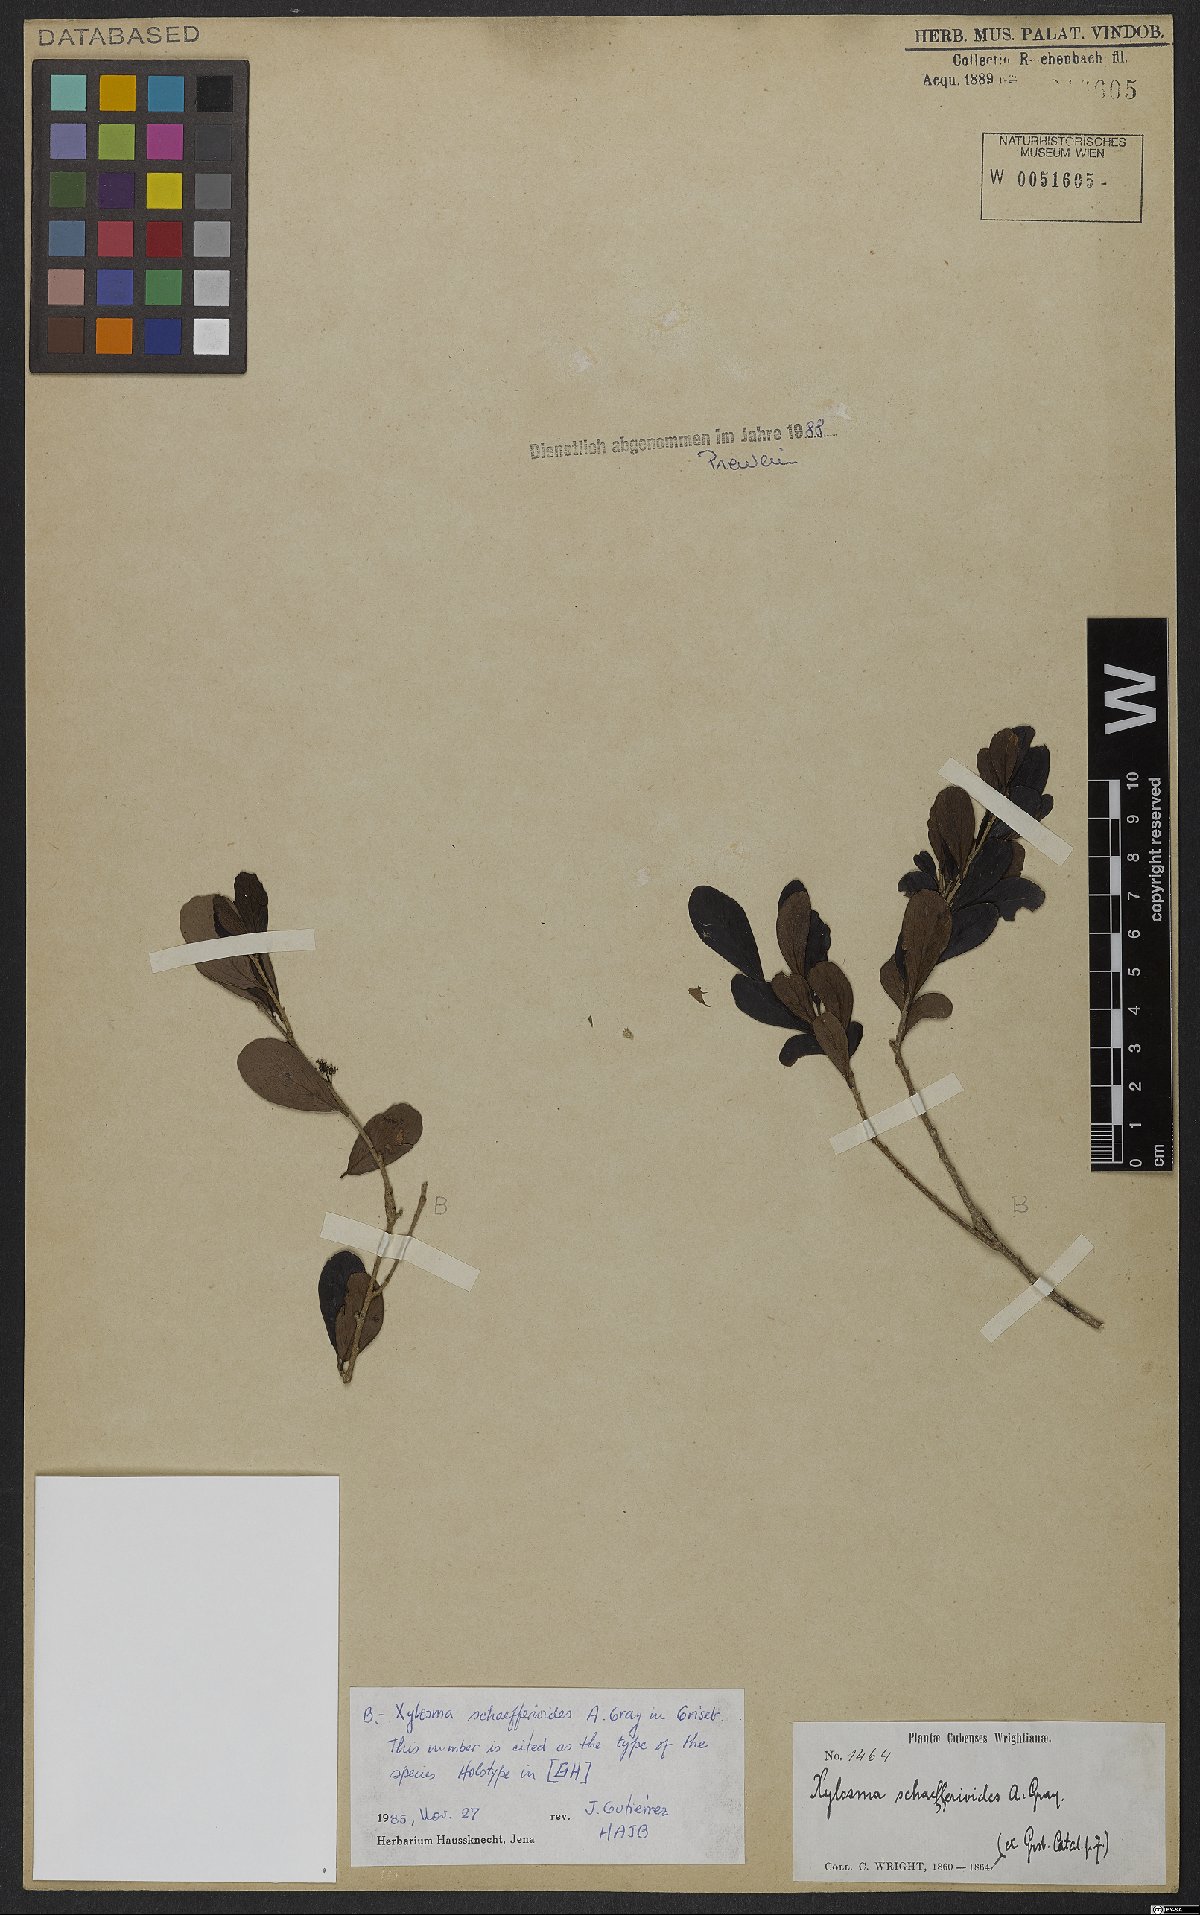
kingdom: Plantae
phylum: Tracheophyta
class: Magnoliopsida
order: Malpighiales
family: Salicaceae
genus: Xylosma
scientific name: Xylosma schaefferioides
